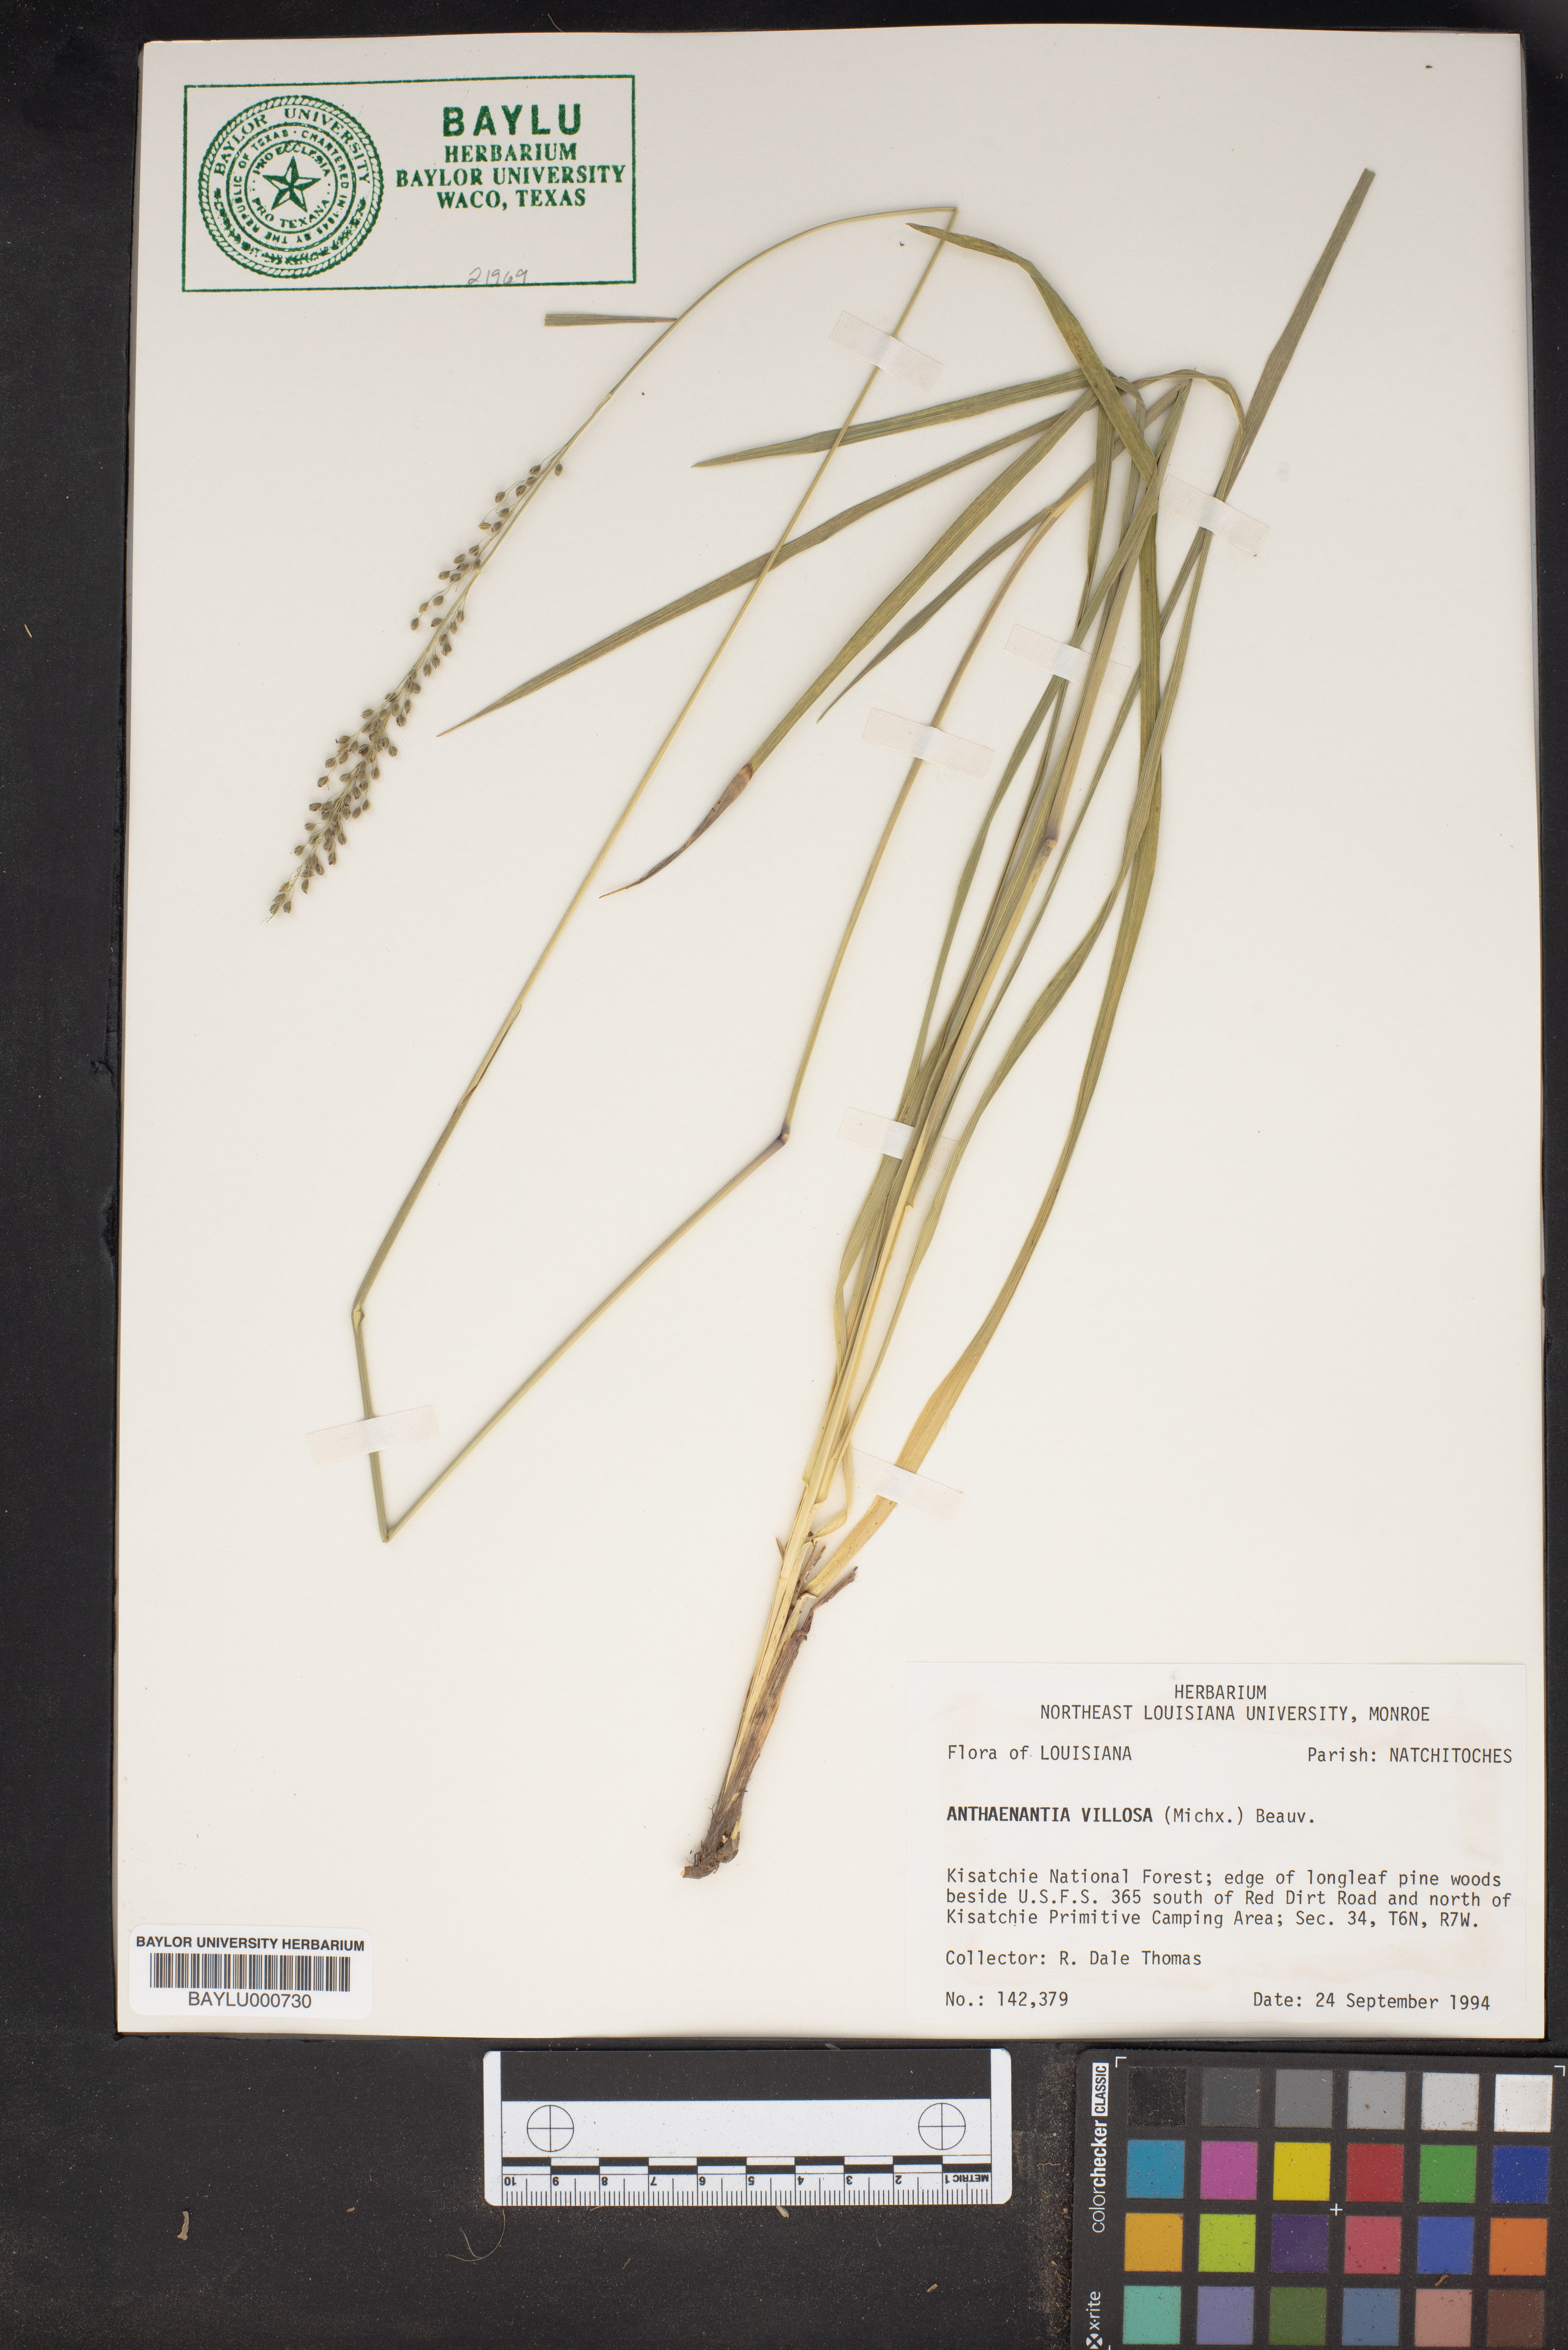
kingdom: Plantae
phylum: Tracheophyta
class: Liliopsida
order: Poales
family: Poaceae
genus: Anthenantia
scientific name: Anthenantia villosa
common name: Green silkyscale
